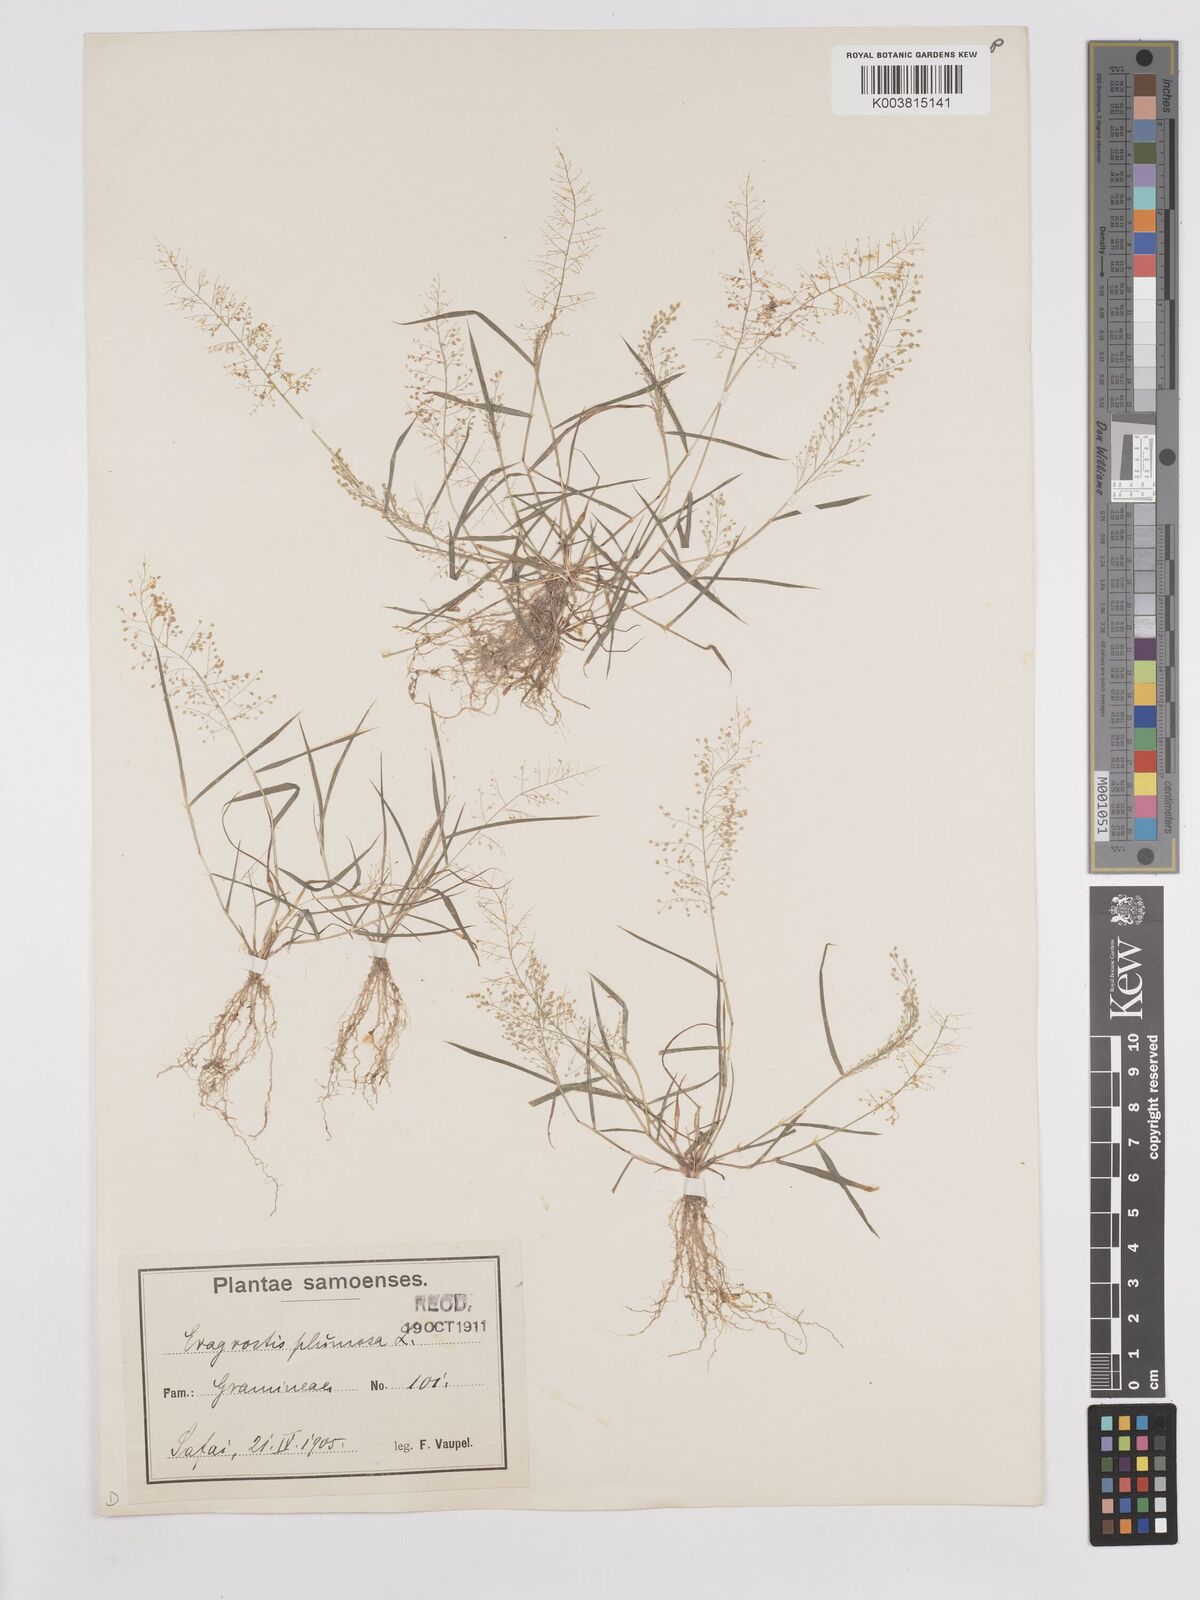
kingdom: Plantae
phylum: Tracheophyta
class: Liliopsida
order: Poales
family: Poaceae
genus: Eragrostis
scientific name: Eragrostis tenella
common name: Japanese lovegrass
